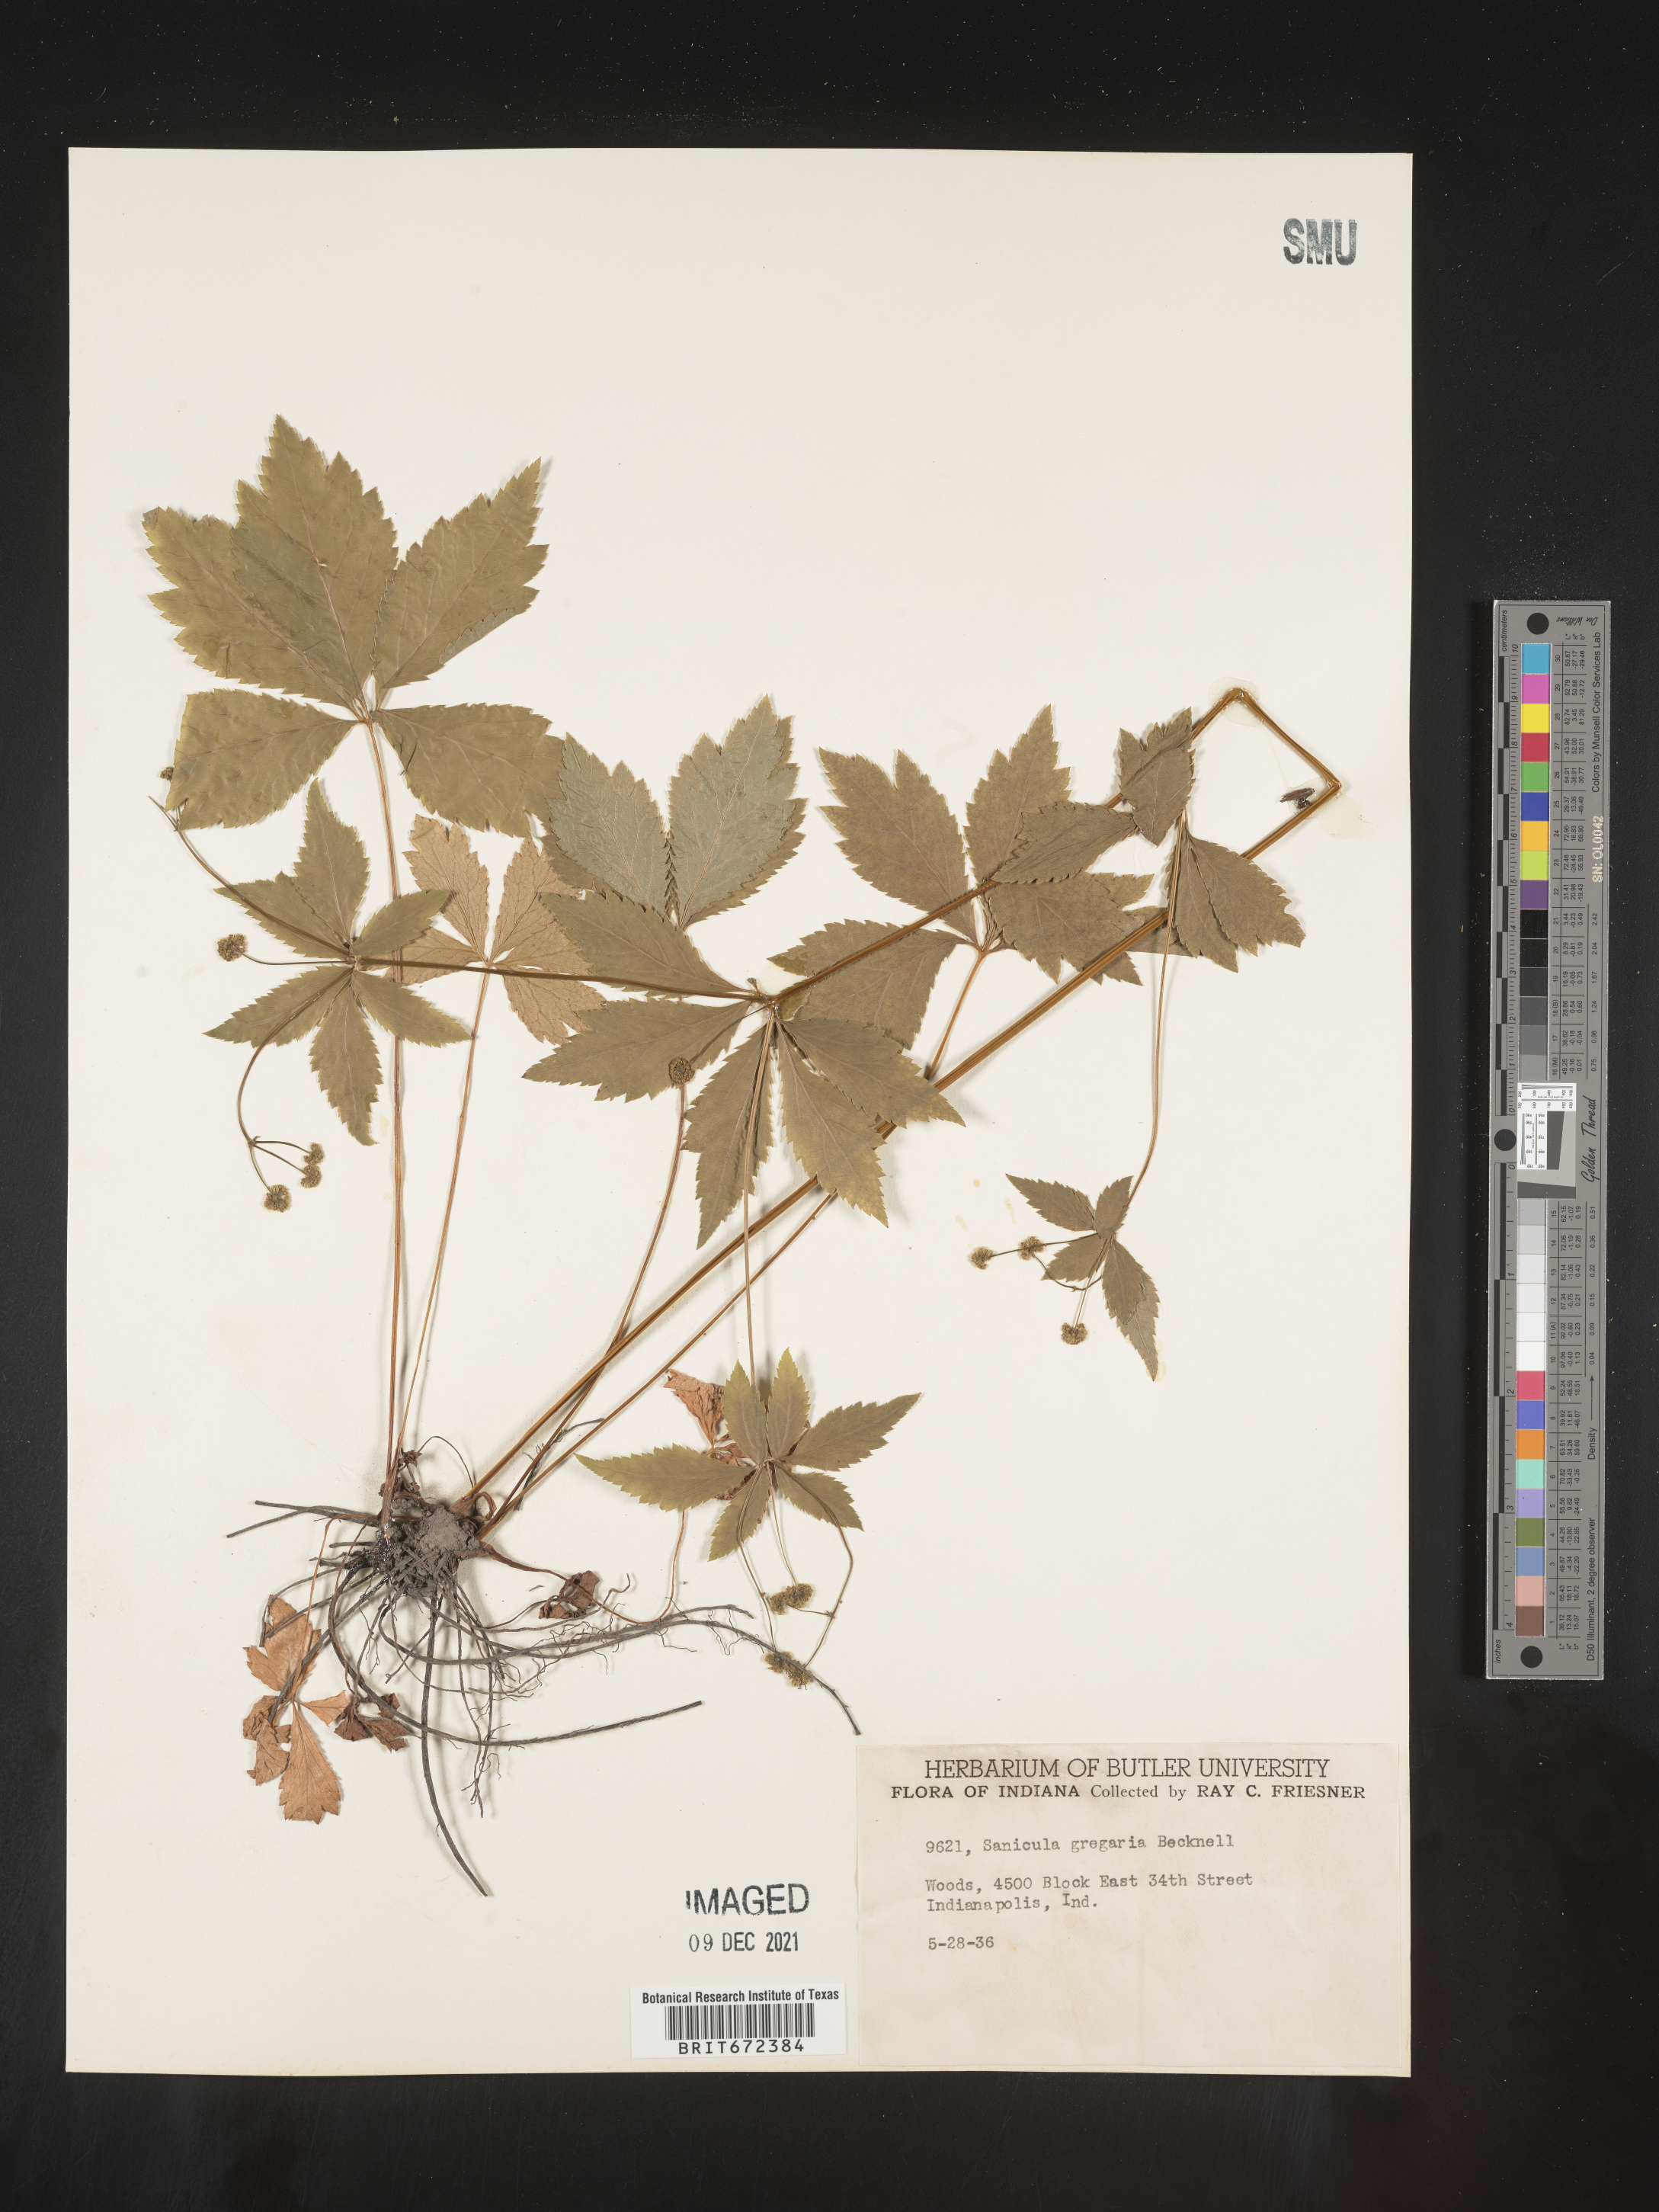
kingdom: Plantae
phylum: Tracheophyta
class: Magnoliopsida
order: Apiales
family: Apiaceae
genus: Sanicula
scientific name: Sanicula odorata
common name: Cluster sanicle
